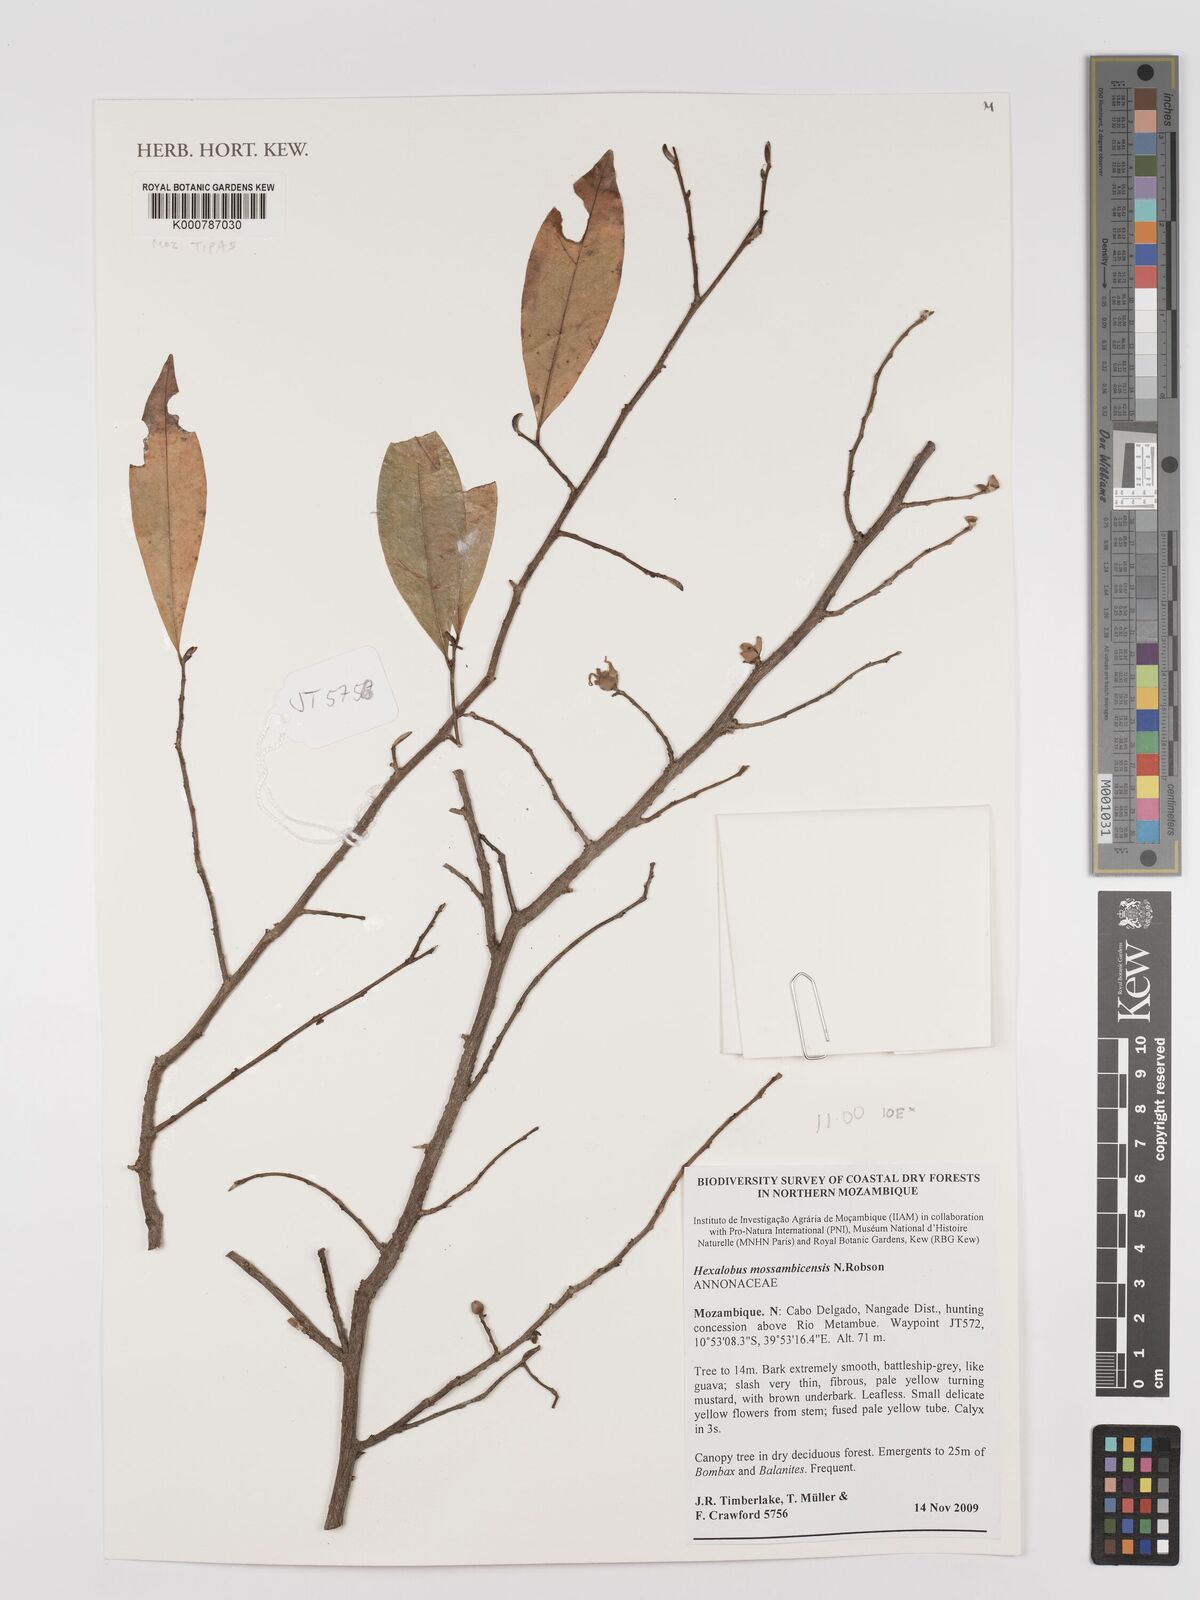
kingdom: Plantae
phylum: Tracheophyta
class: Magnoliopsida
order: Magnoliales
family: Annonaceae
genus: Hexalobus
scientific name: Hexalobus mossambicensis
